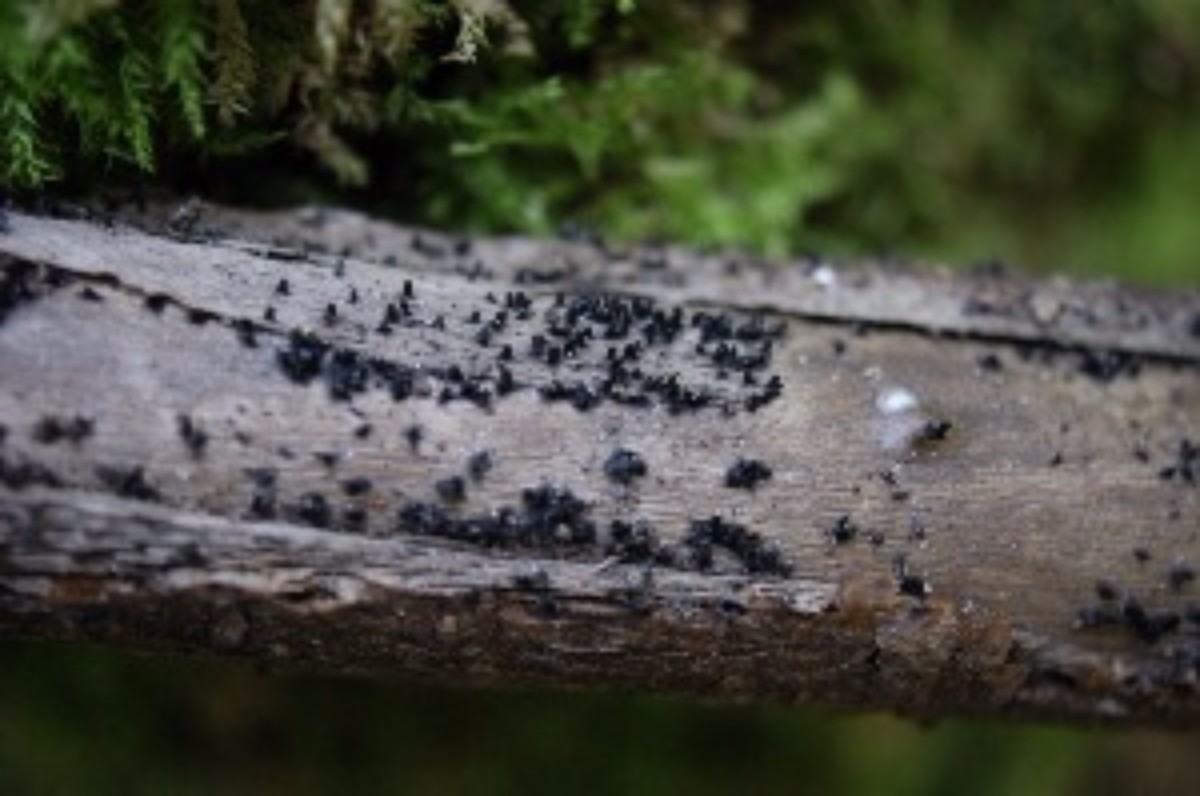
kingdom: Fungi
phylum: Ascomycota
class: Eurotiomycetes
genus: Glyphium
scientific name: Glyphium elatum
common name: kuløkse
